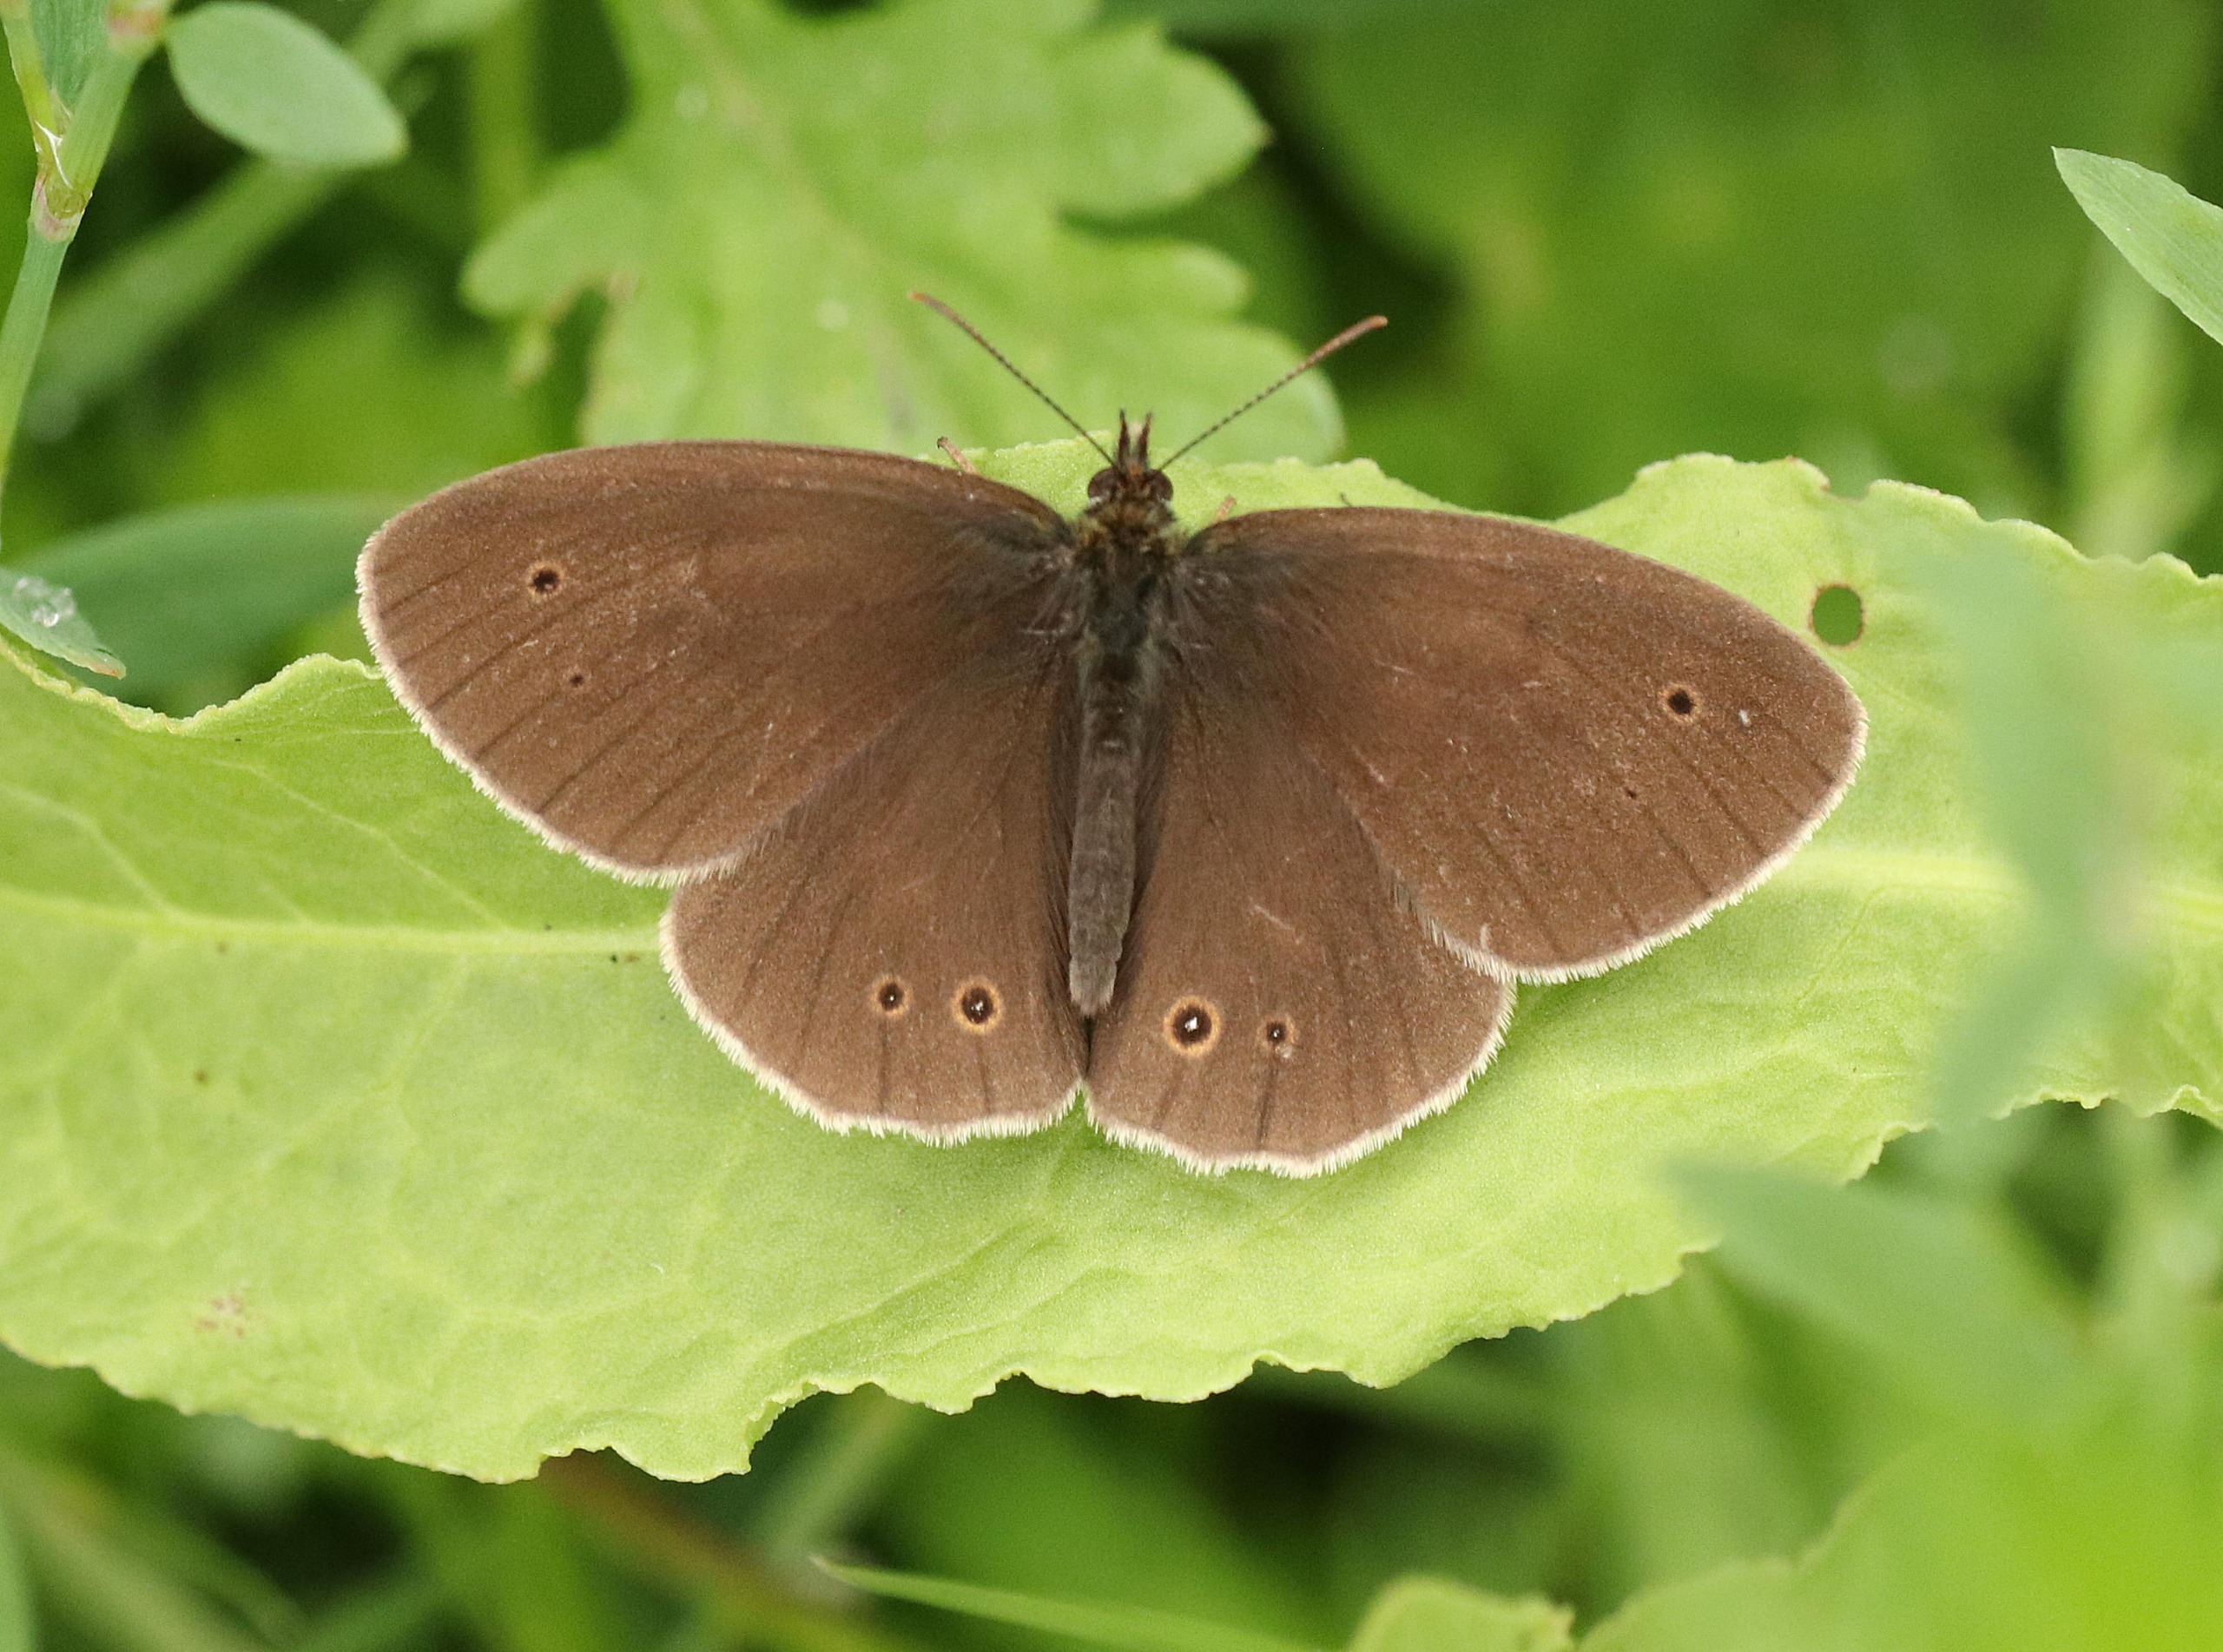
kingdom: Animalia
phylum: Arthropoda
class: Insecta
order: Lepidoptera
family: Nymphalidae
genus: Aphantopus
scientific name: Aphantopus hyperantus
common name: Engrandøje
